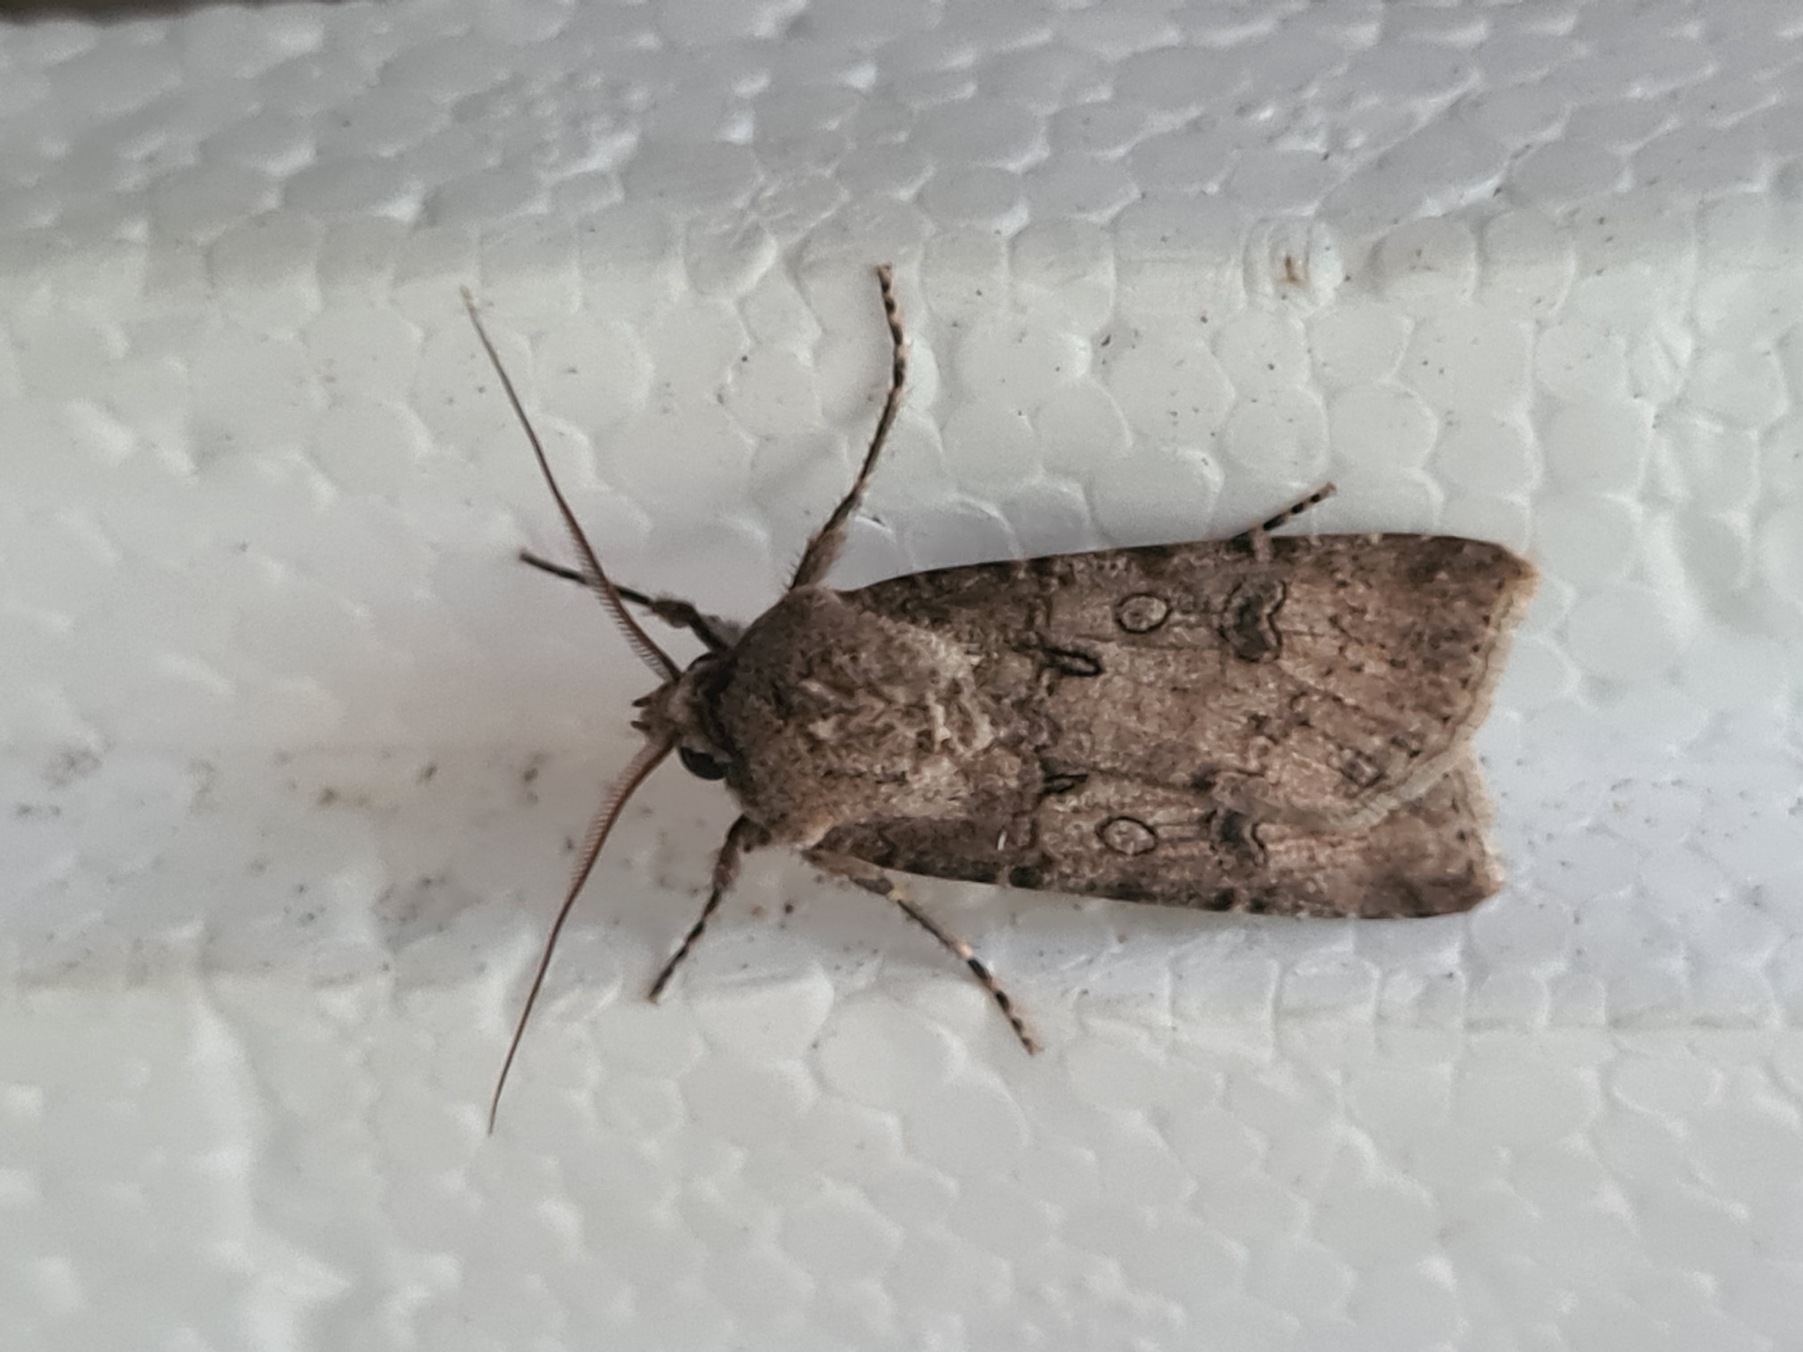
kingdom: Animalia
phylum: Arthropoda
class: Insecta
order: Lepidoptera
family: Noctuidae
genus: Agrotis
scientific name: Agrotis segetum
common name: Agerugle
